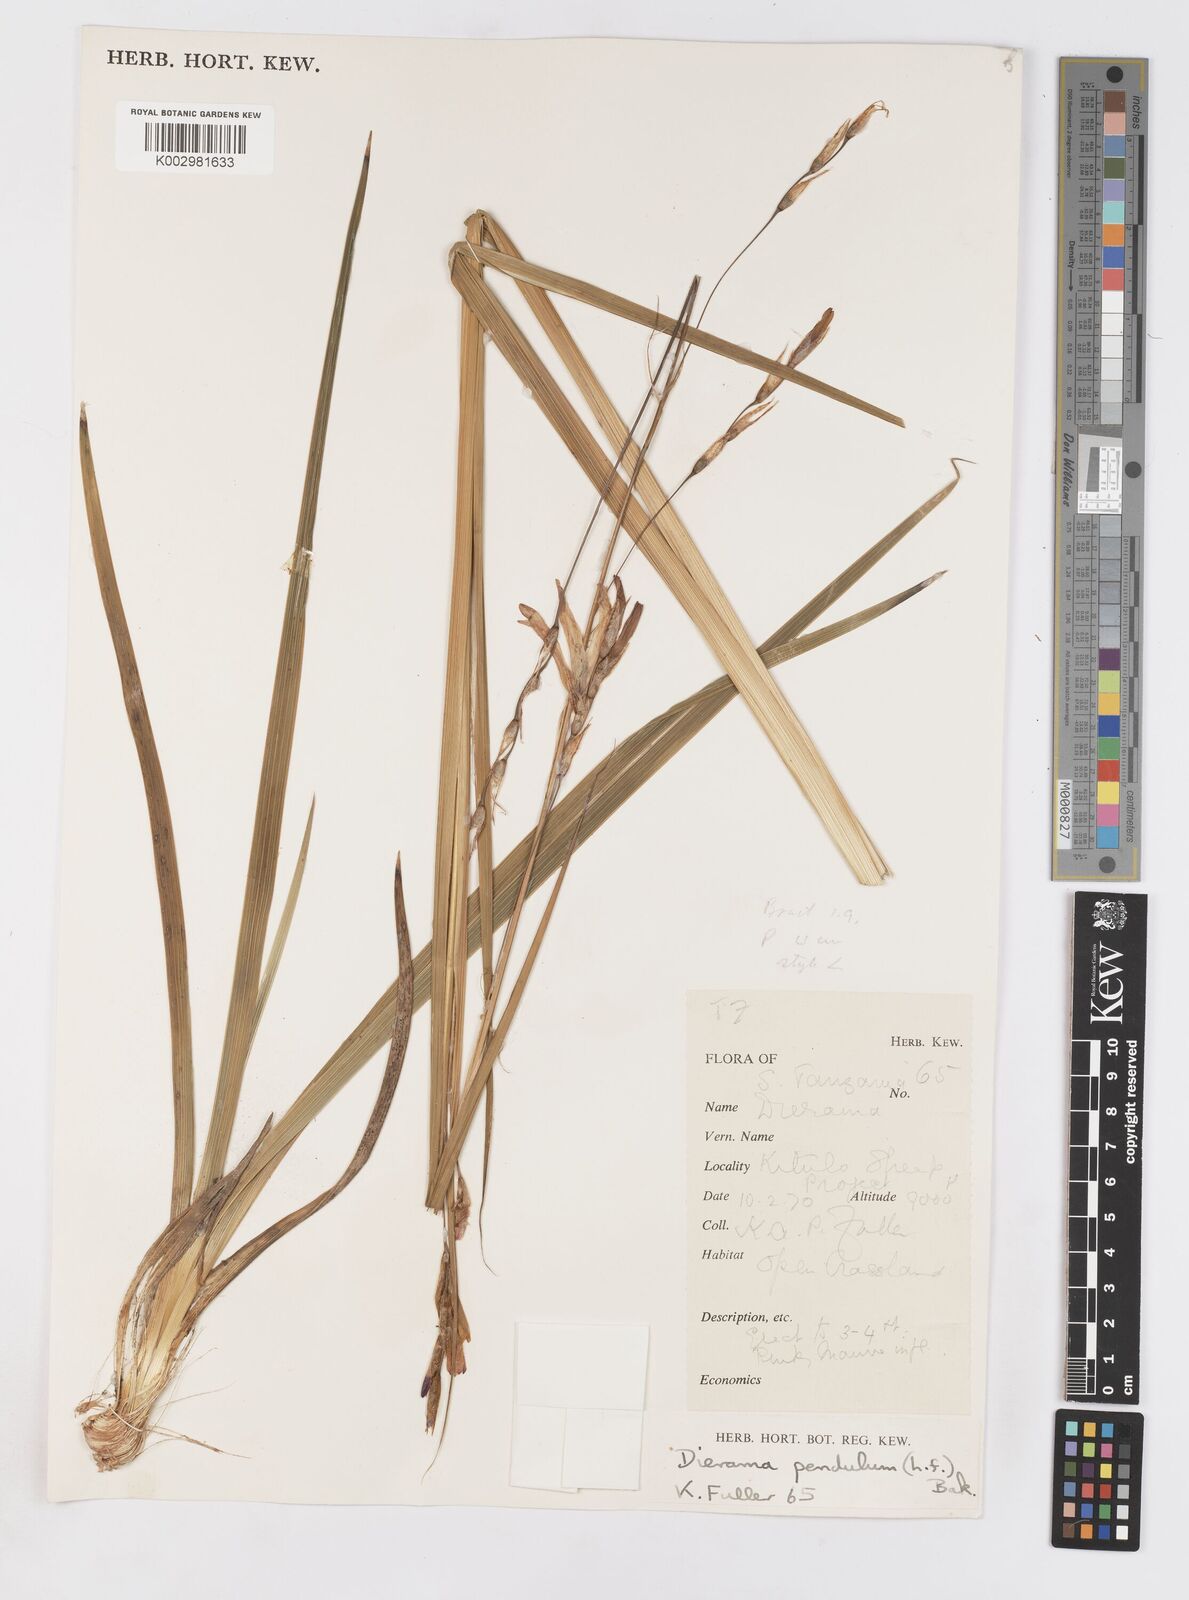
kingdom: Plantae
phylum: Tracheophyta
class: Liliopsida
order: Asparagales
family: Iridaceae
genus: Dierama
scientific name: Dierama cupuliflorum
